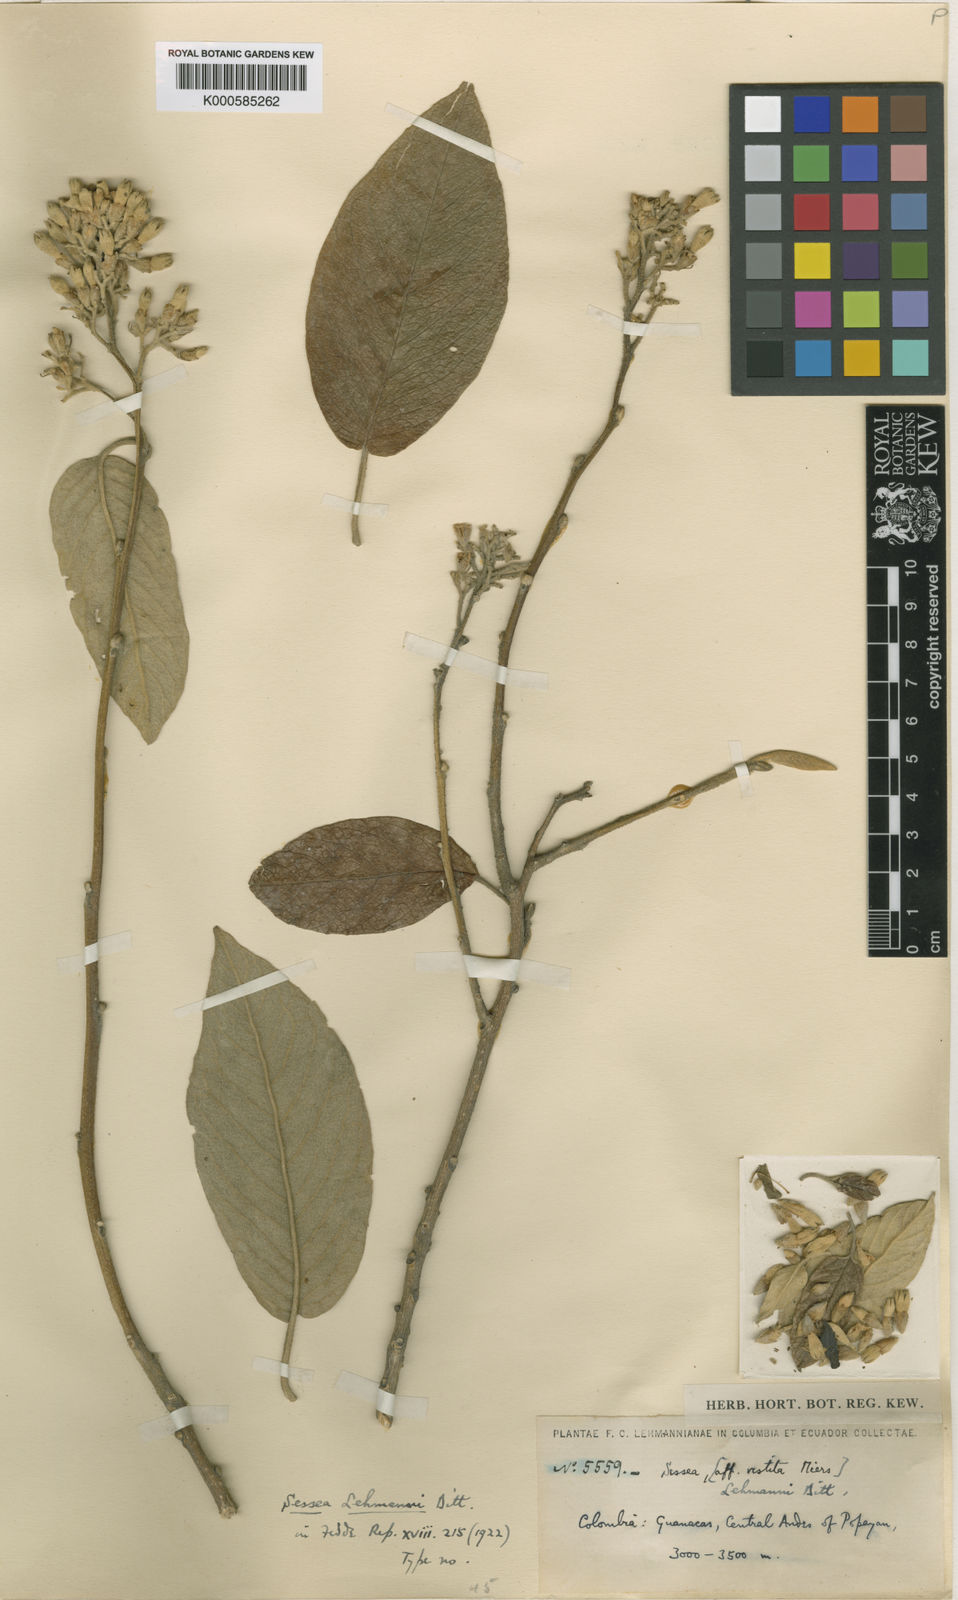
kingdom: Plantae
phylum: Tracheophyta
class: Magnoliopsida
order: Solanales
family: Solanaceae
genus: Sessea
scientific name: Sessea lehmannii
